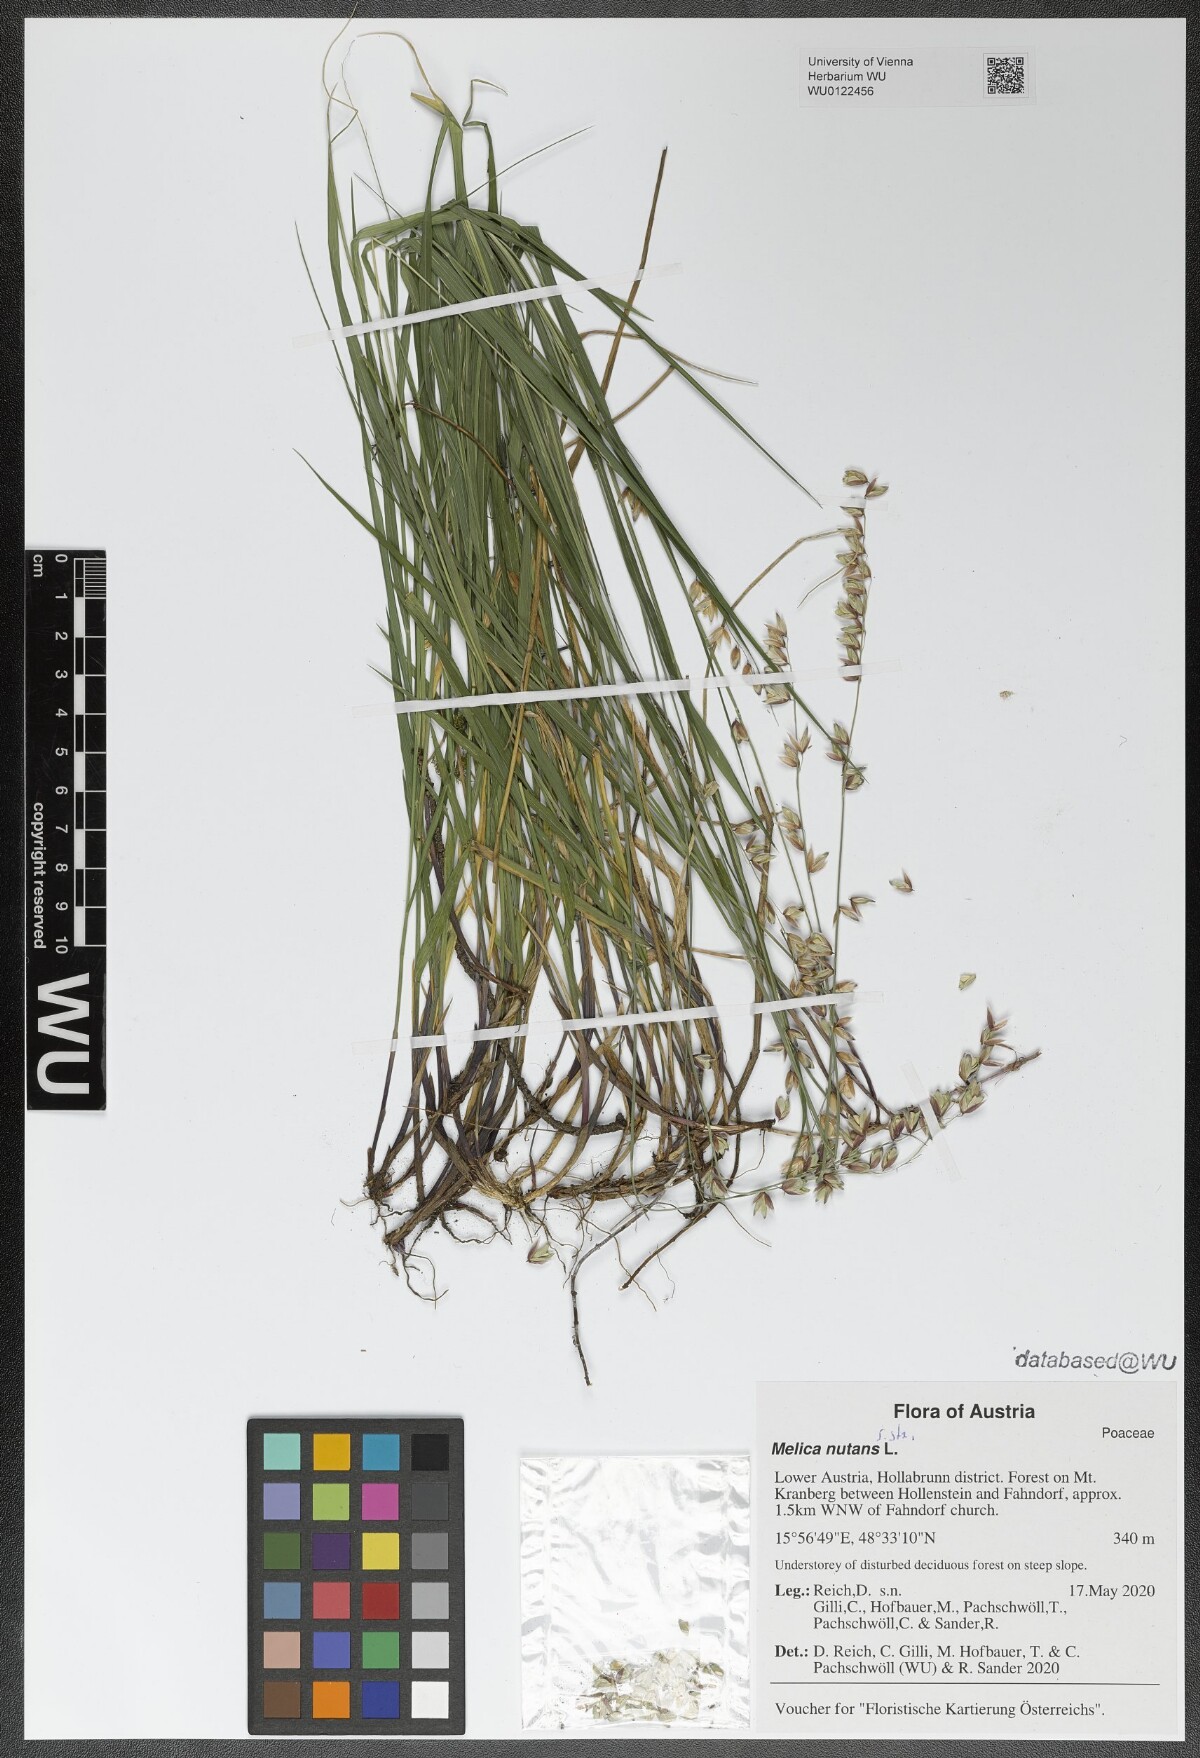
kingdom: Plantae
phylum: Tracheophyta
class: Liliopsida
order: Poales
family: Poaceae
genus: Melica
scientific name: Melica nutans
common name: Mountain melick
